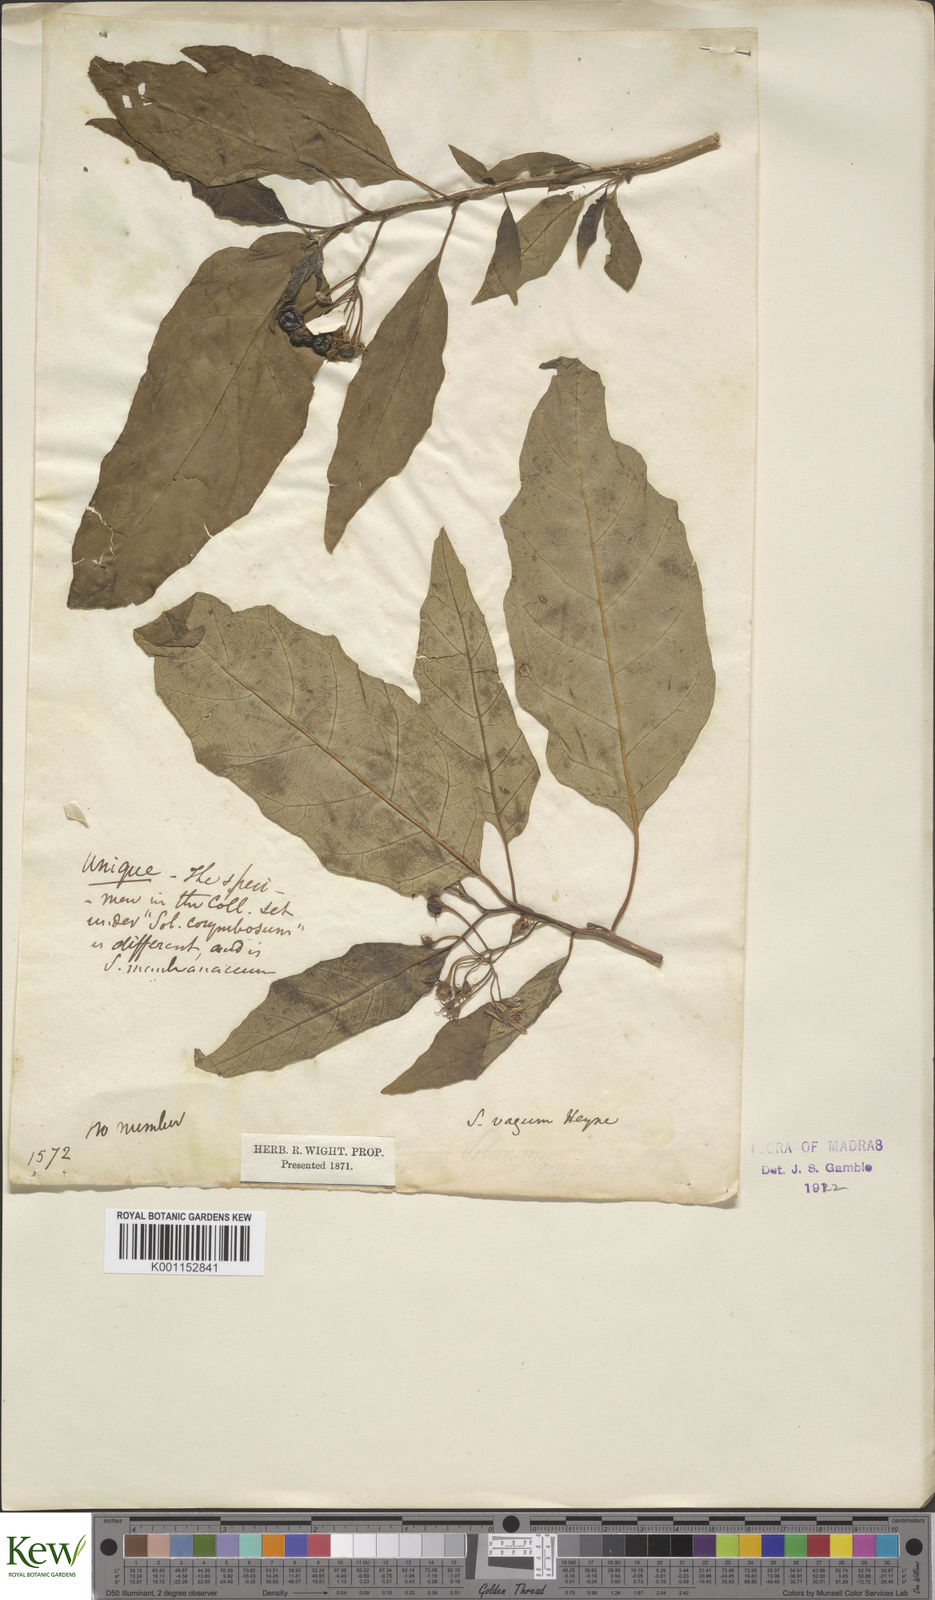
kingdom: Plantae
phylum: Tracheophyta
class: Magnoliopsida
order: Solanales
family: Solanaceae
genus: Solanum
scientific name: Solanum
